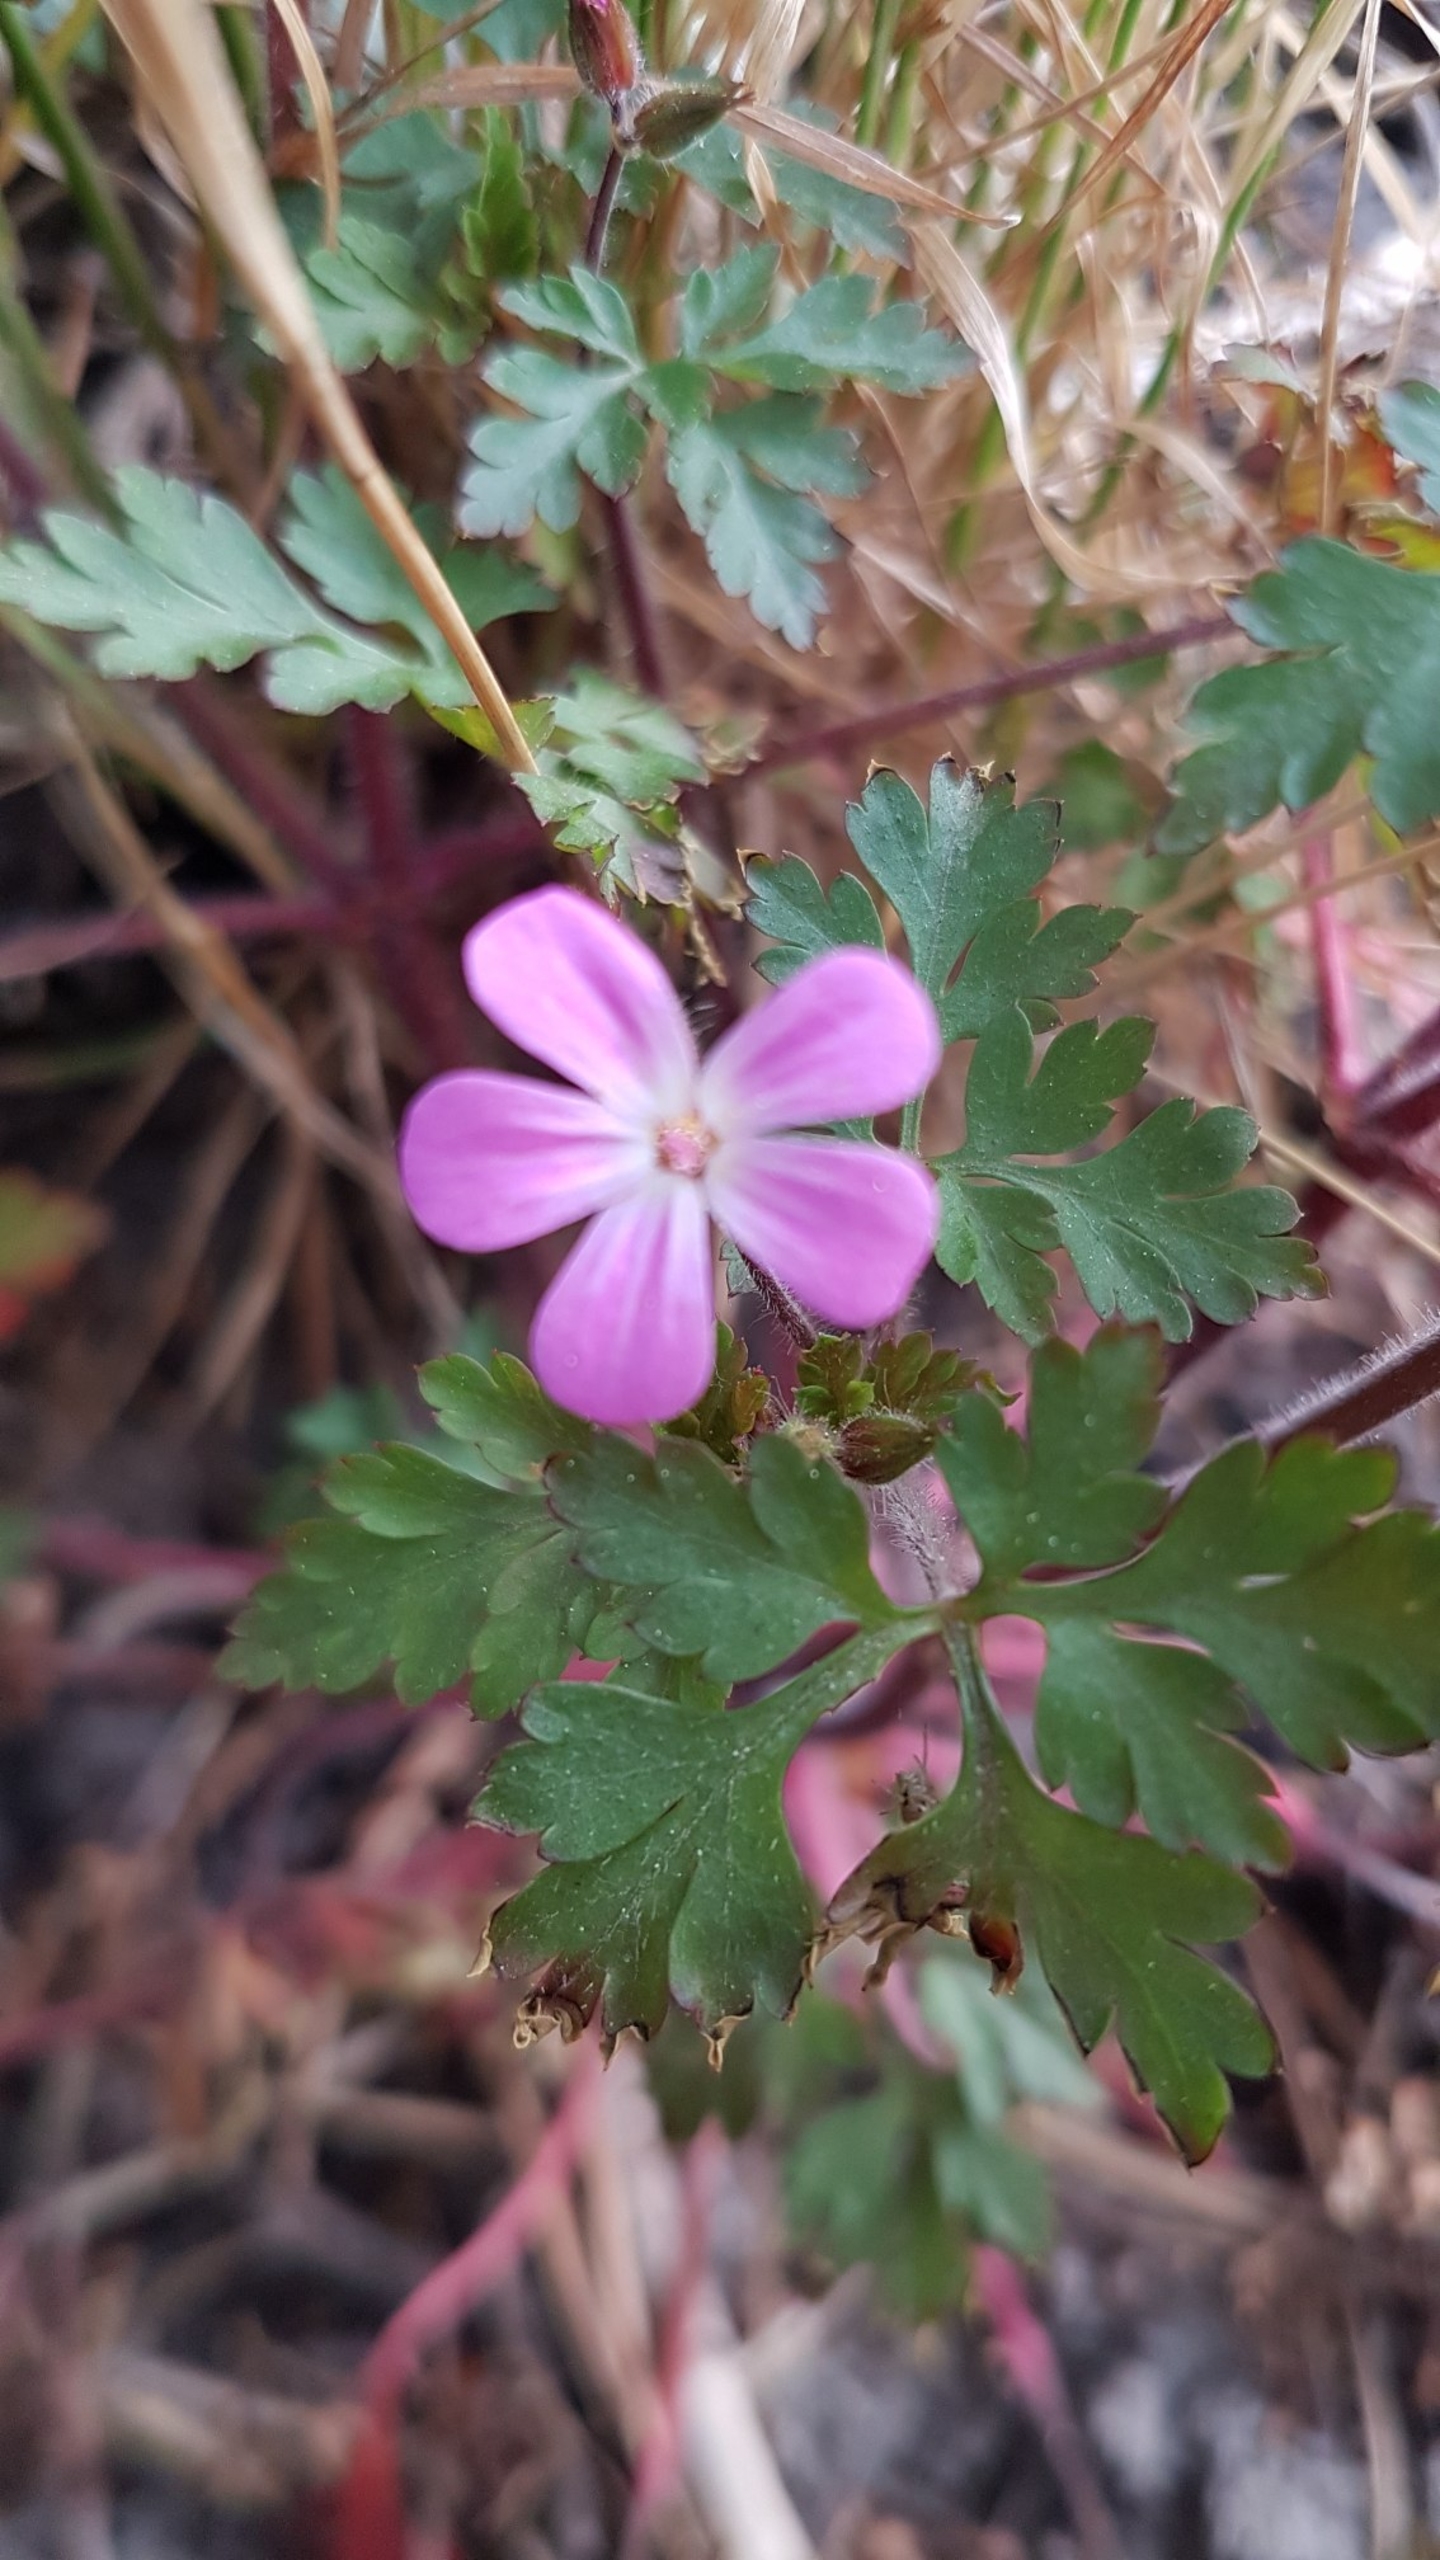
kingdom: Plantae
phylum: Tracheophyta
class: Magnoliopsida
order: Geraniales
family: Geraniaceae
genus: Geranium
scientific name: Geranium robertianum
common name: Stinkende storkenæb
